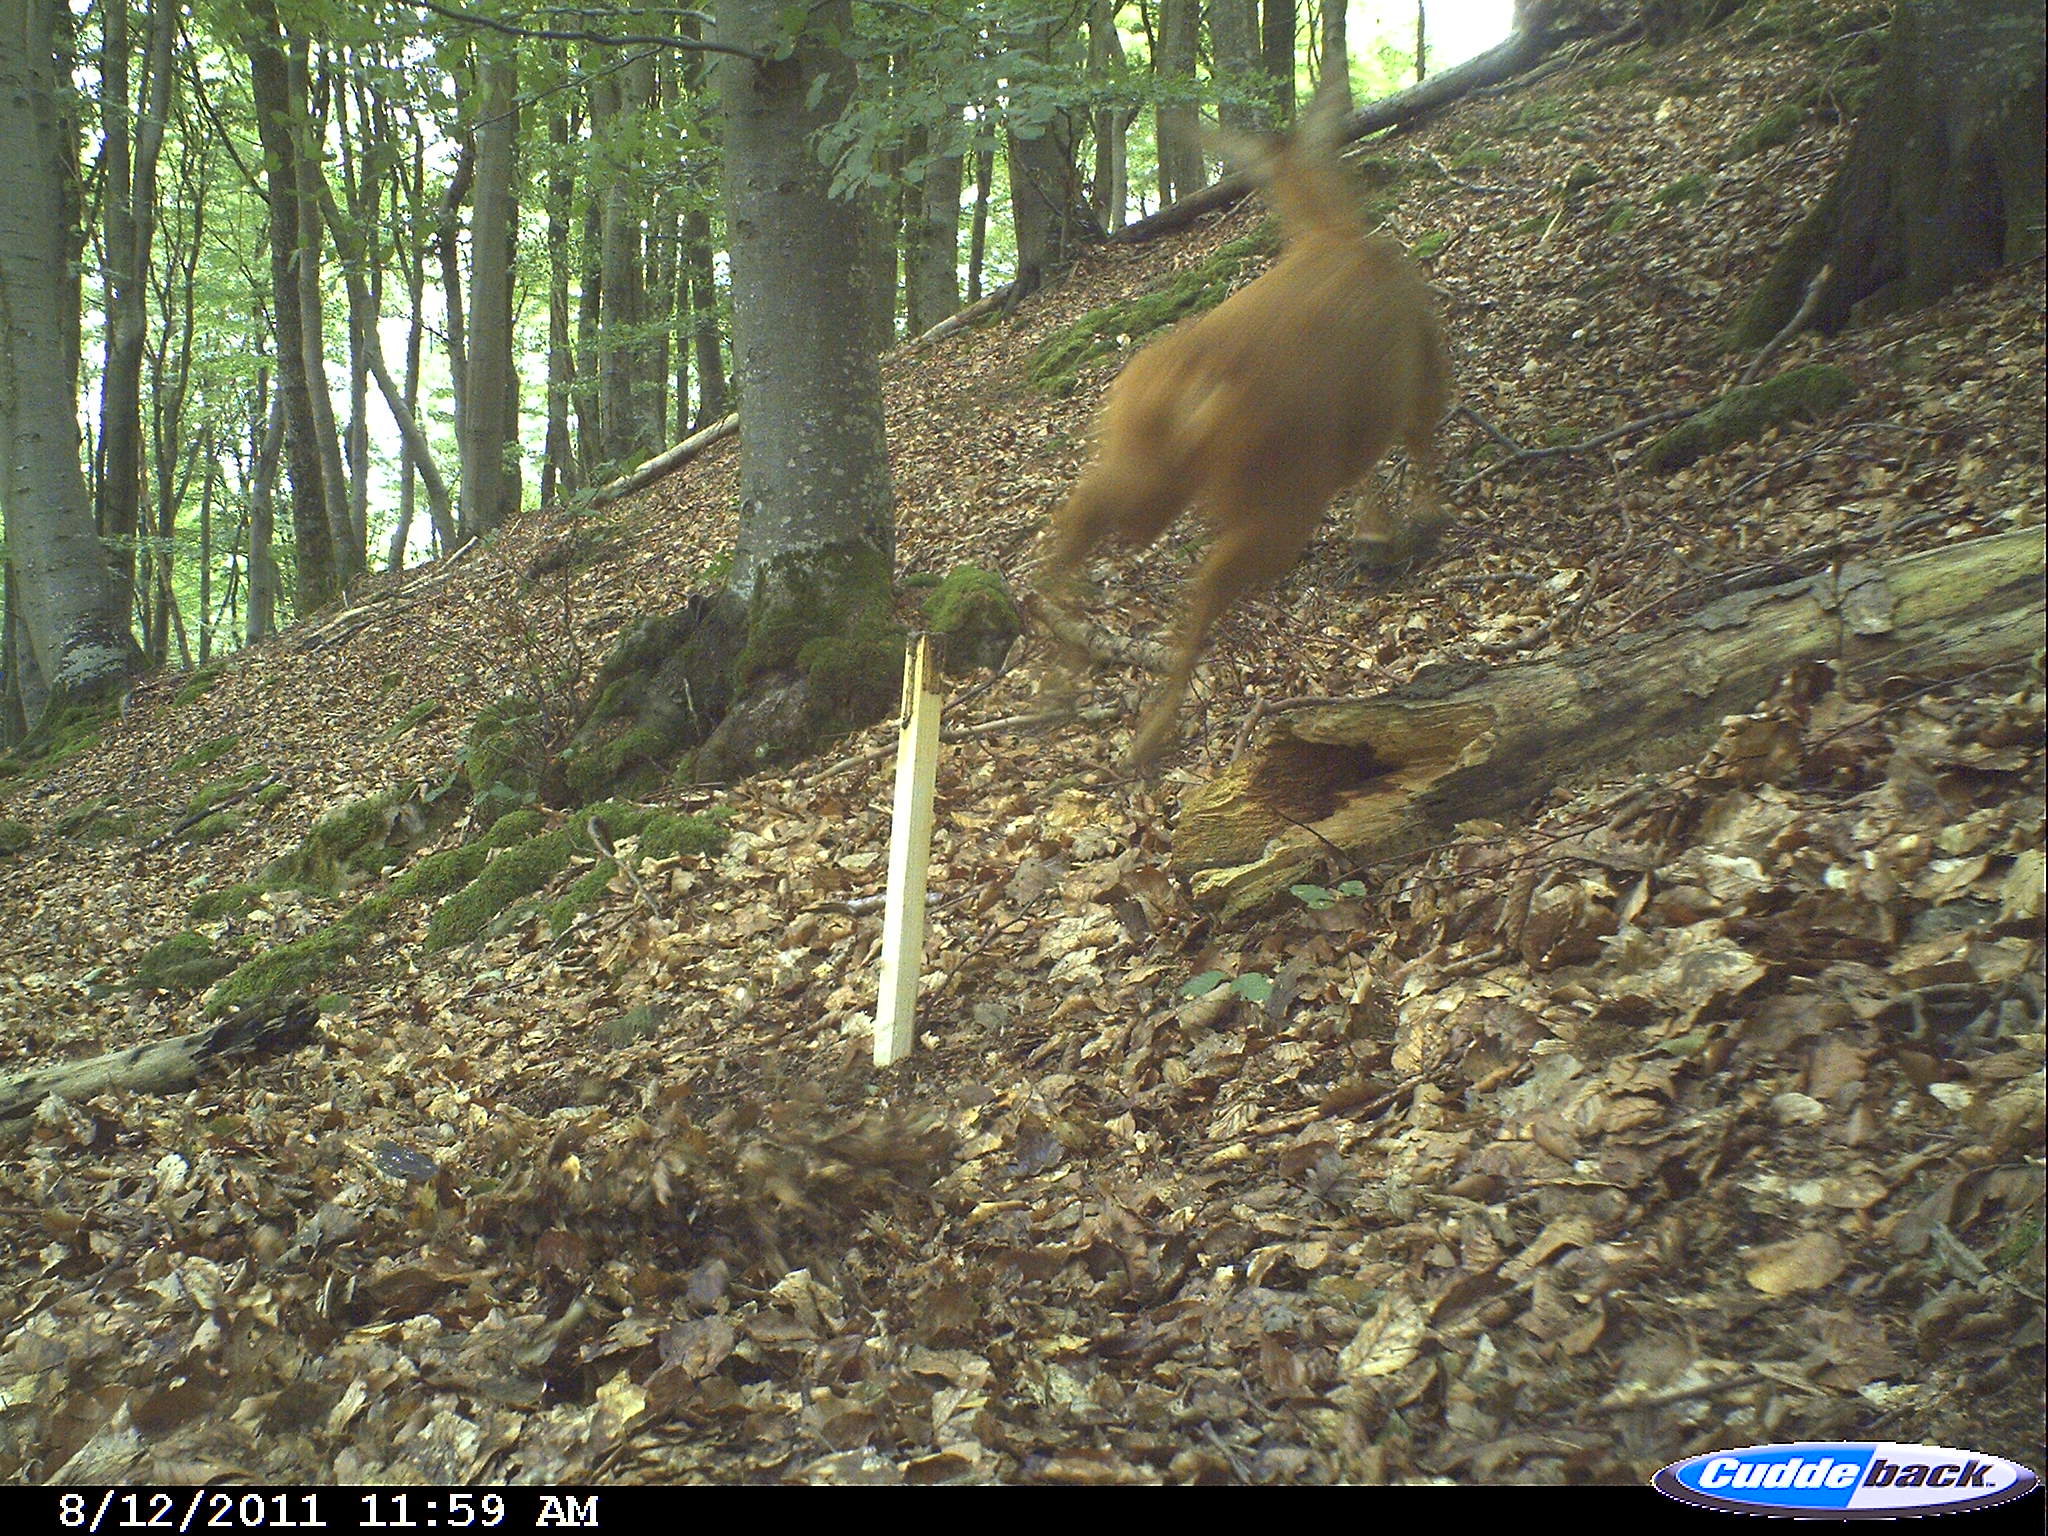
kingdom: Animalia
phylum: Chordata
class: Mammalia
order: Artiodactyla
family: Cervidae
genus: Capreolus
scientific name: Capreolus capreolus
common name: Western roe deer
